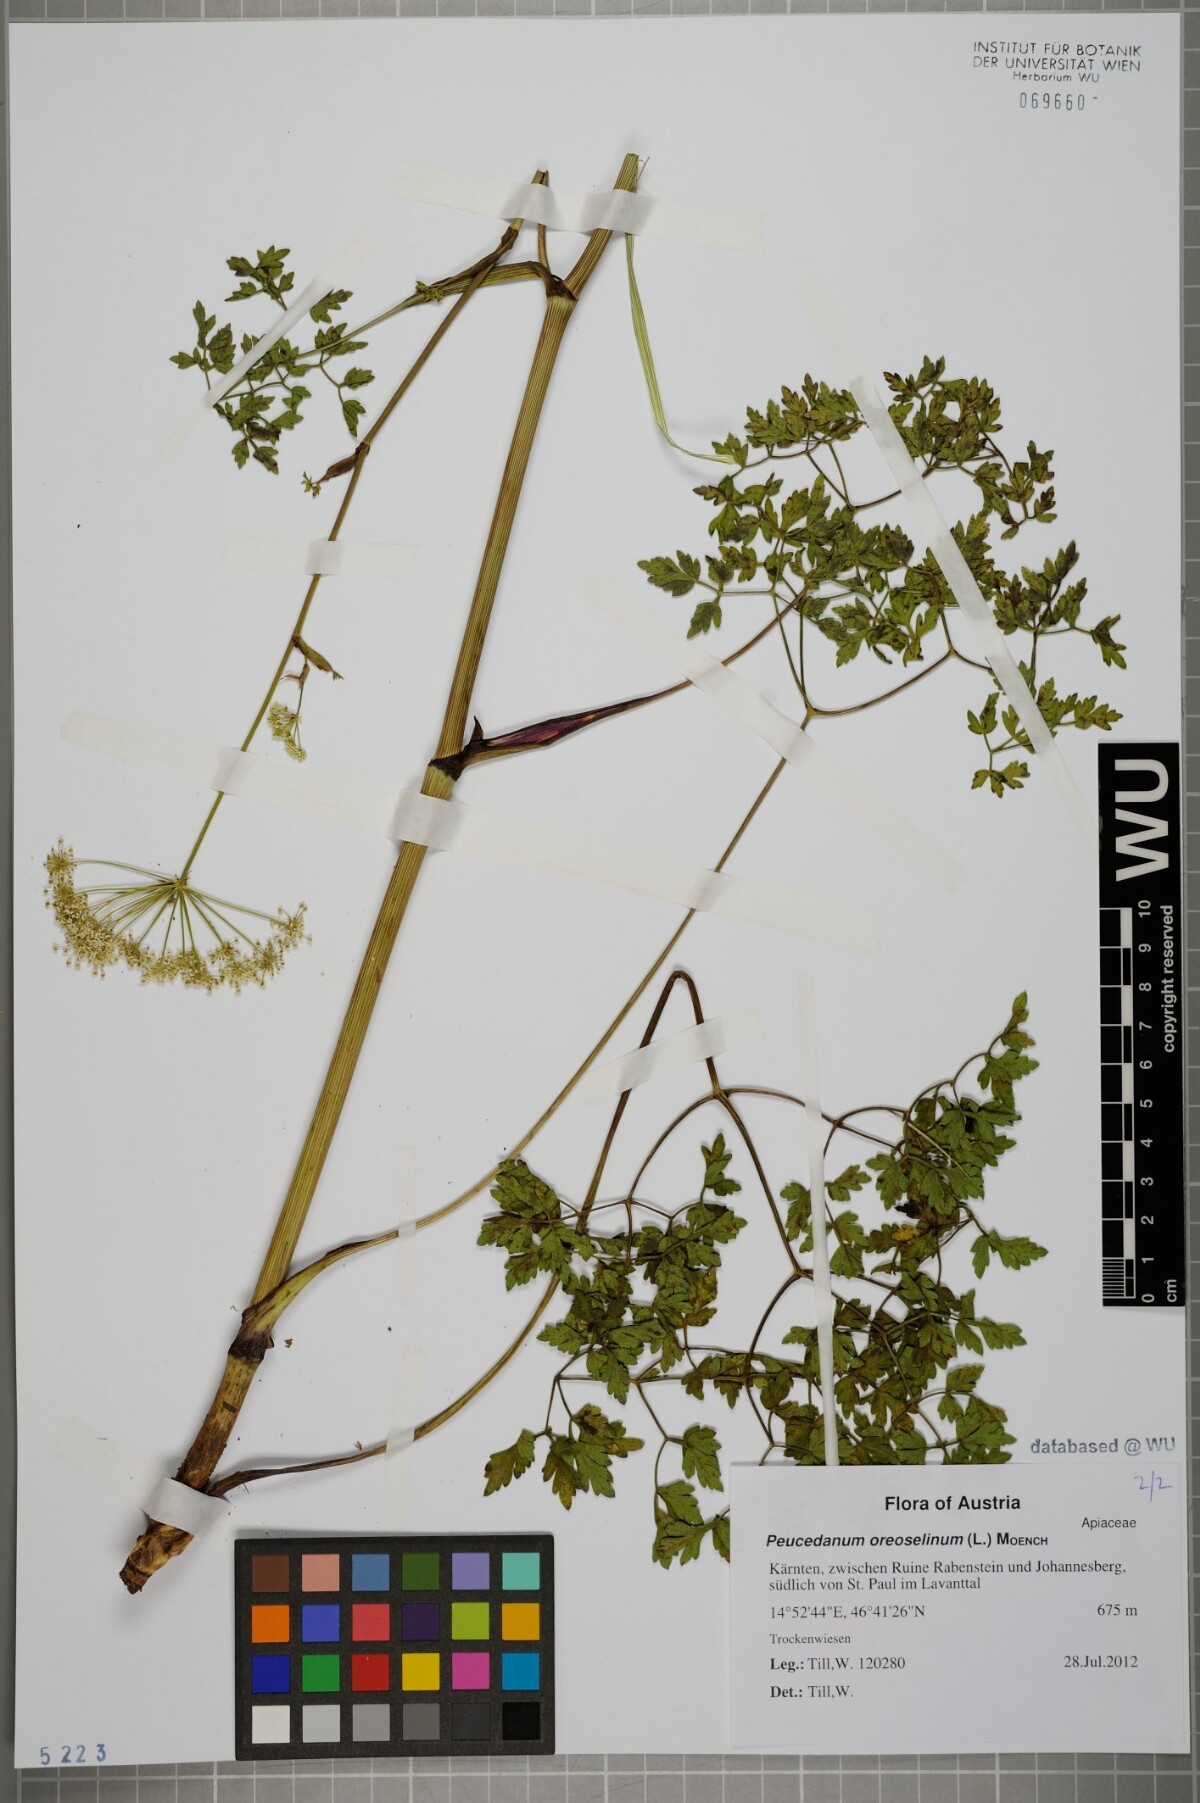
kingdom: Plantae
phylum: Tracheophyta
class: Magnoliopsida
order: Apiales
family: Apiaceae
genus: Oreoselinum
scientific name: Oreoselinum nigrum
